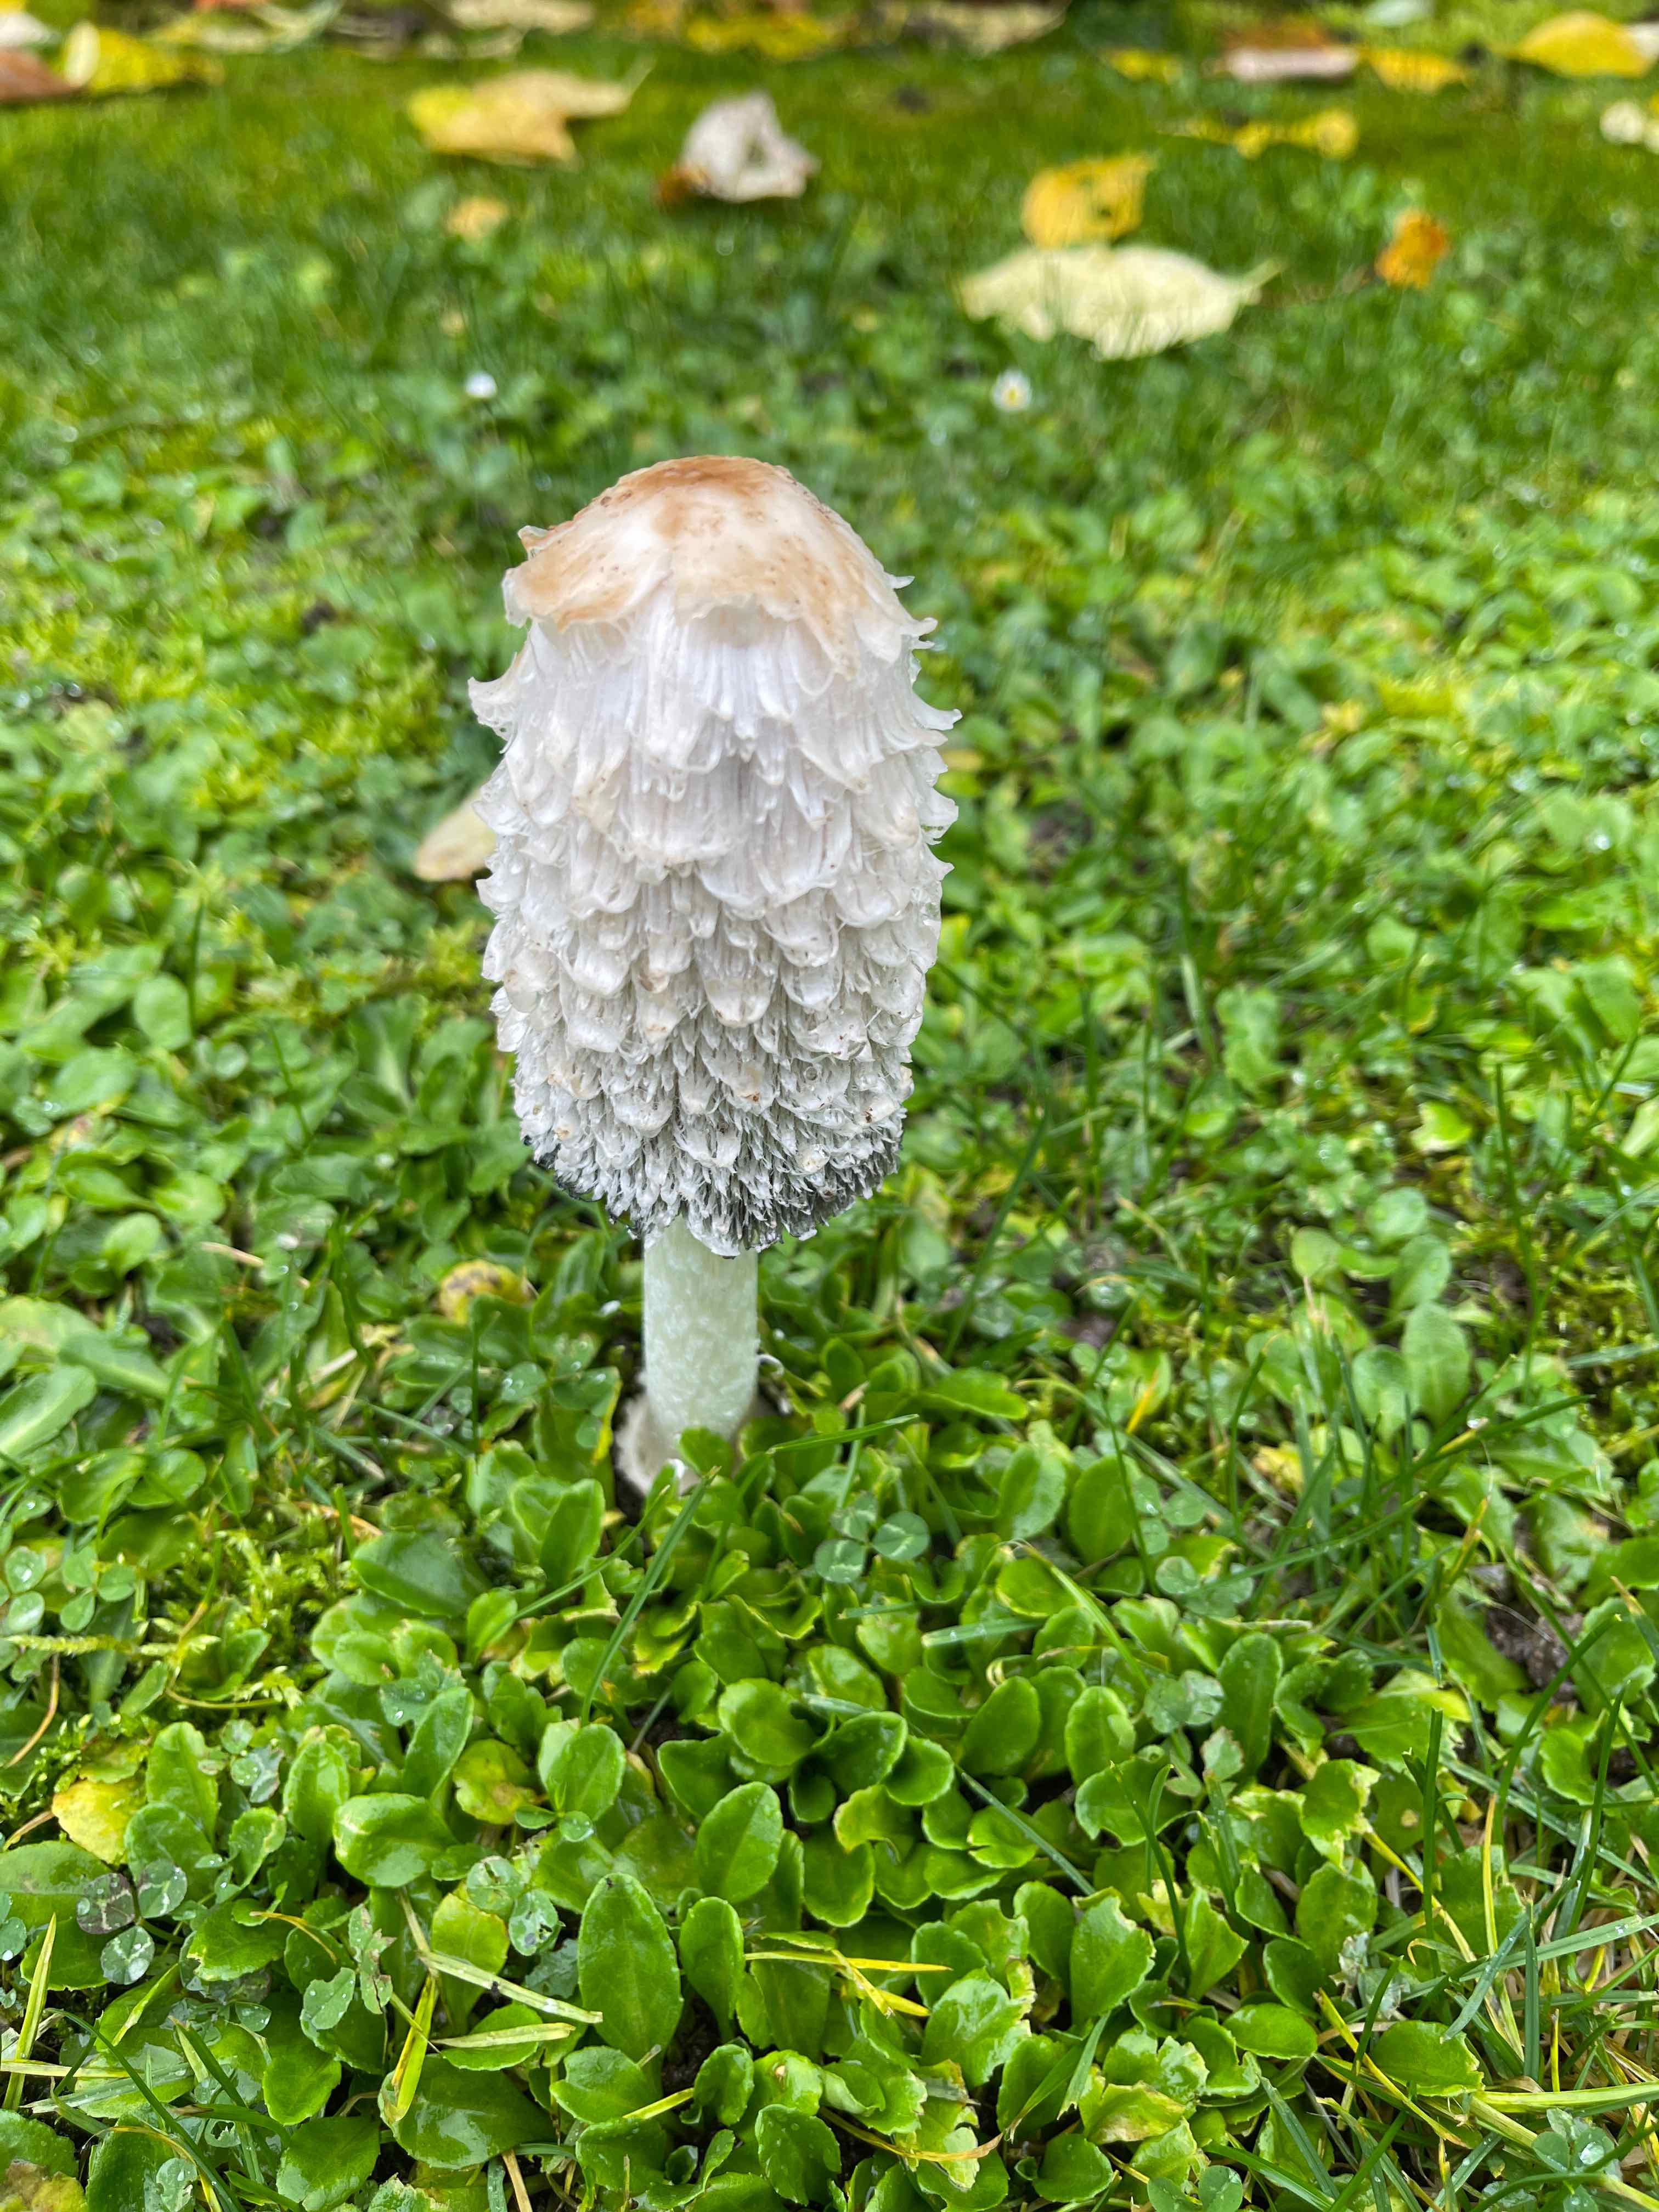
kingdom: Fungi
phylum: Basidiomycota
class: Agaricomycetes
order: Agaricales
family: Agaricaceae
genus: Coprinus
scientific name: Coprinus comatus
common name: stor parykhat
